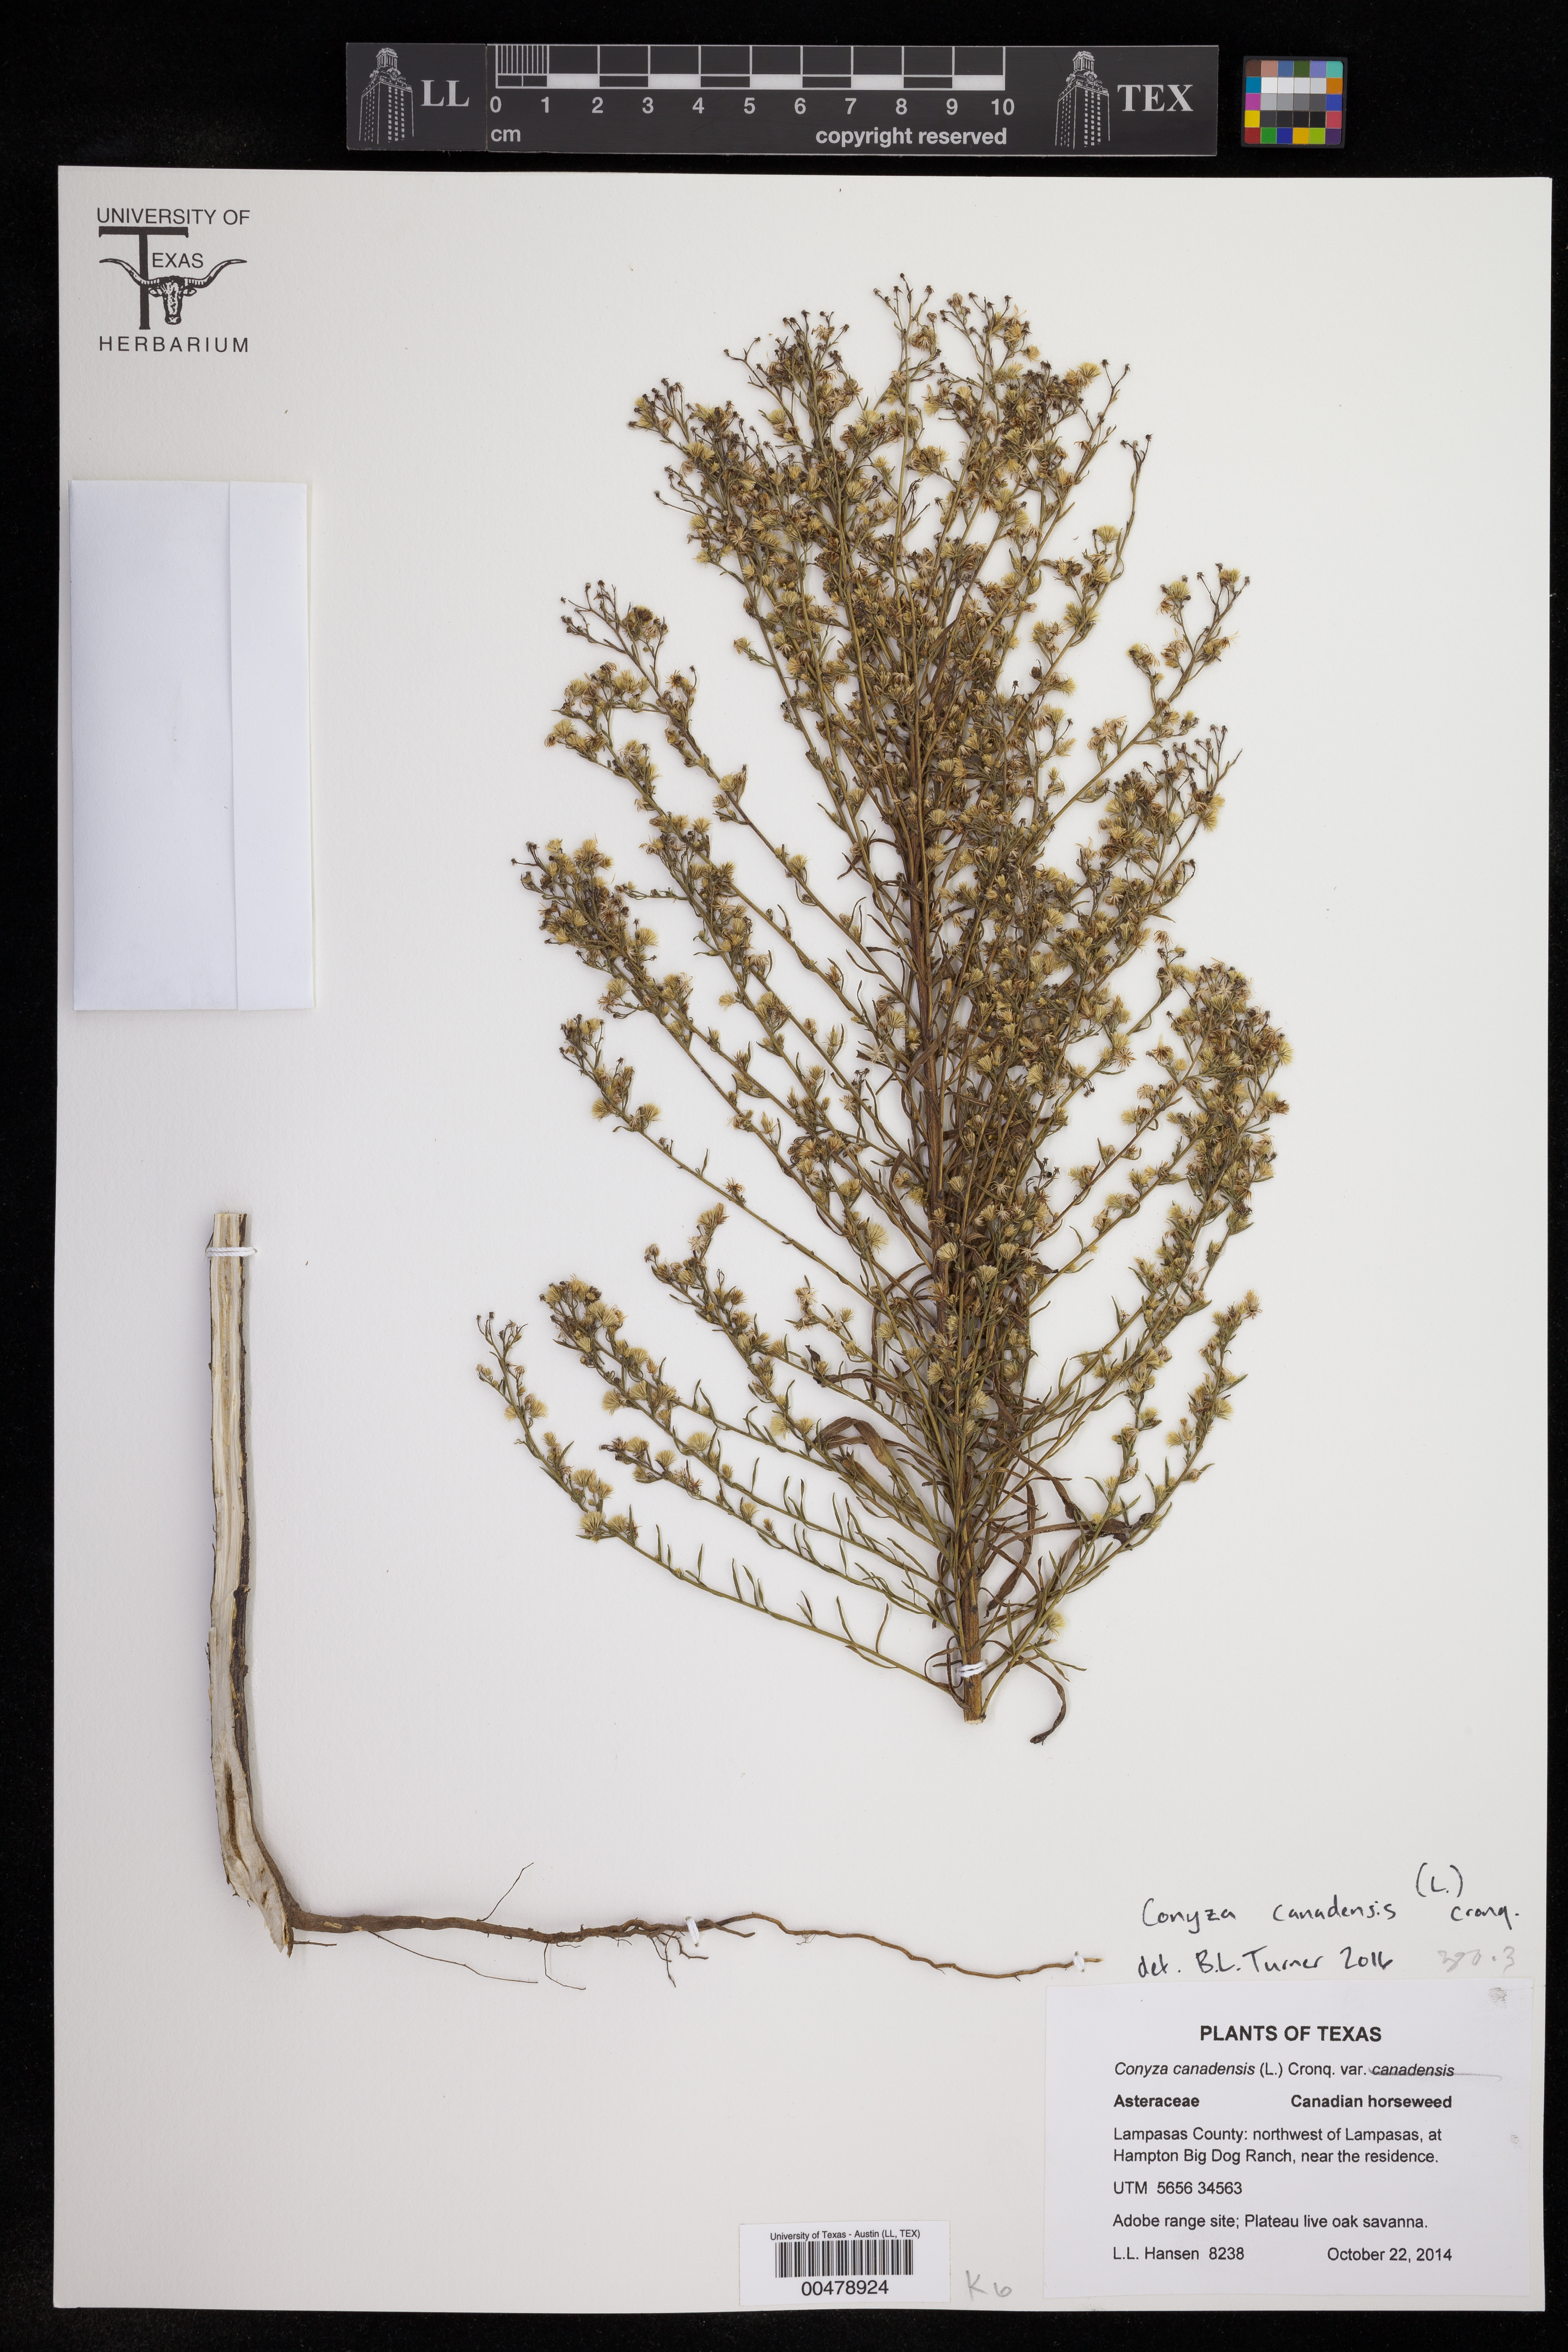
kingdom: Plantae
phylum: Tracheophyta
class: Magnoliopsida
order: Asterales
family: Asteraceae
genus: Erigeron
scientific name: Erigeron canadensis
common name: Canadian fleabane
